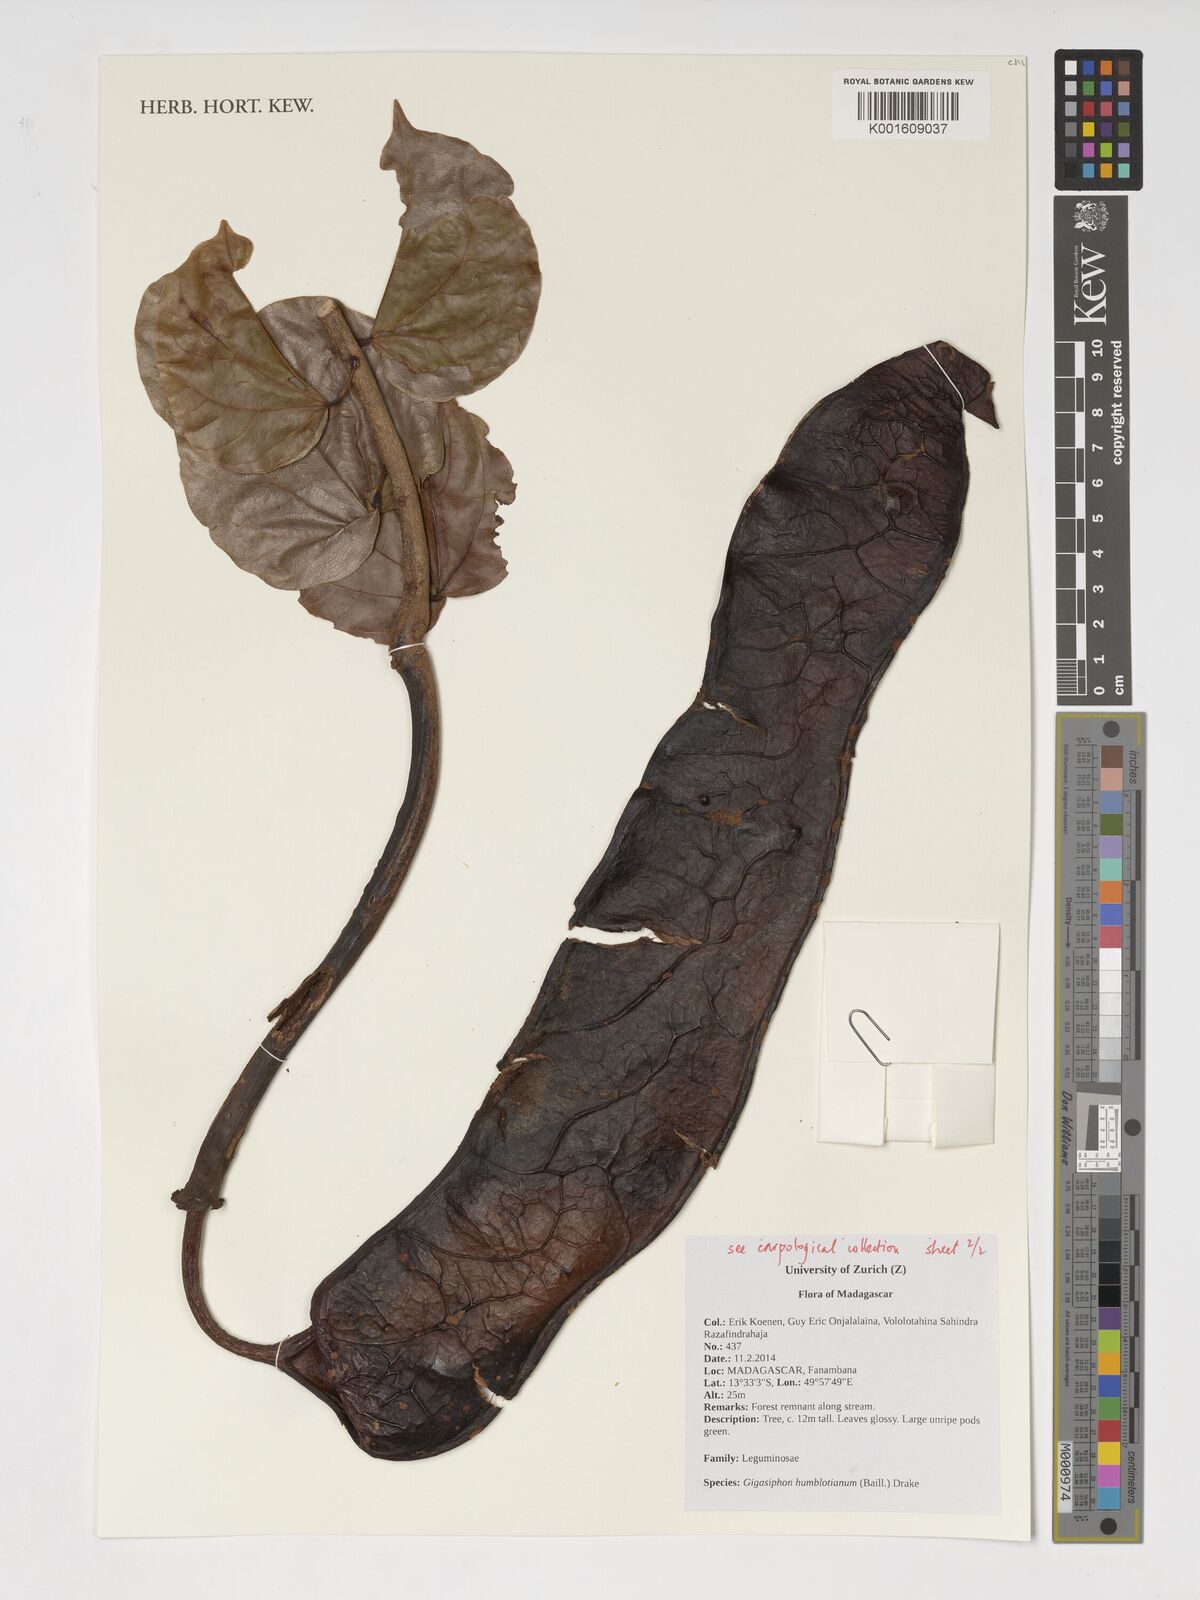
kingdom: Plantae
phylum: Tracheophyta
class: Magnoliopsida
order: Fabales
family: Fabaceae
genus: Gigasiphon
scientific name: Gigasiphon humblotianum
